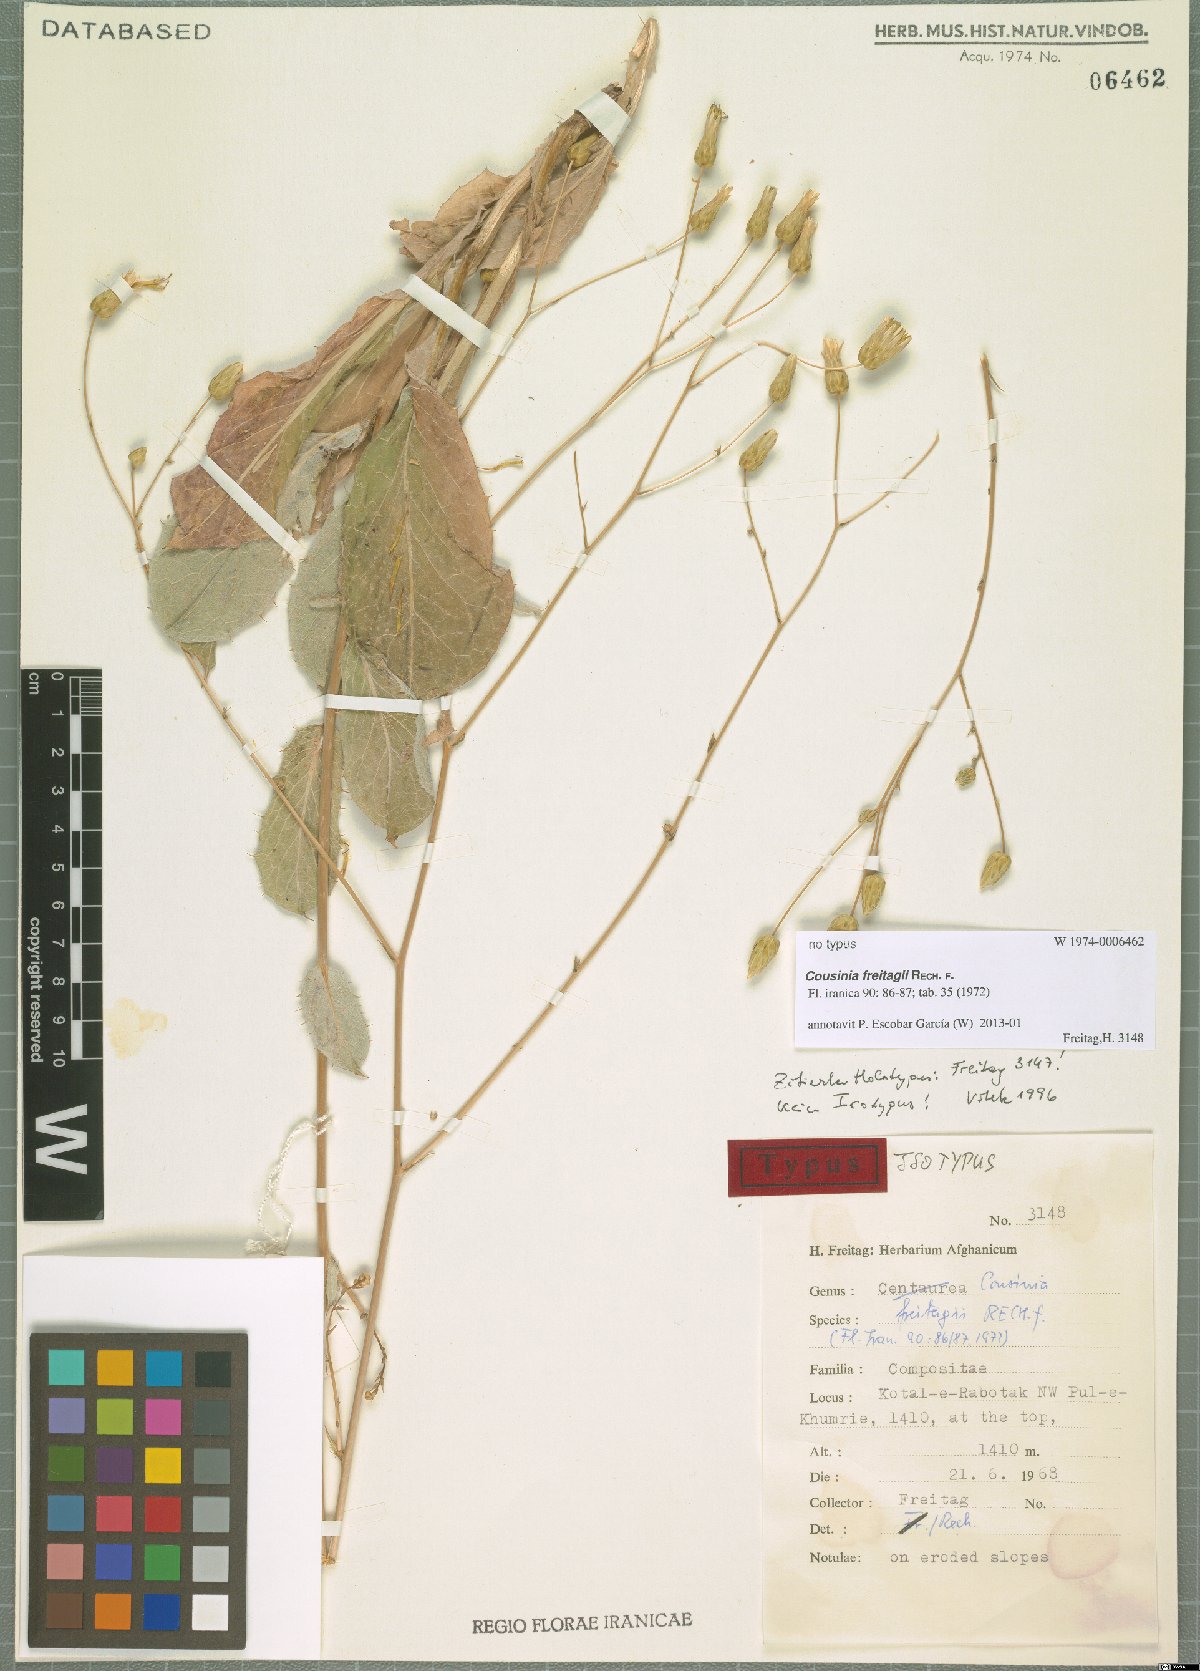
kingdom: Plantae
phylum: Tracheophyta
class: Magnoliopsida
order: Asterales
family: Asteraceae
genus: Cousinia
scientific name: Cousinia freitagii
